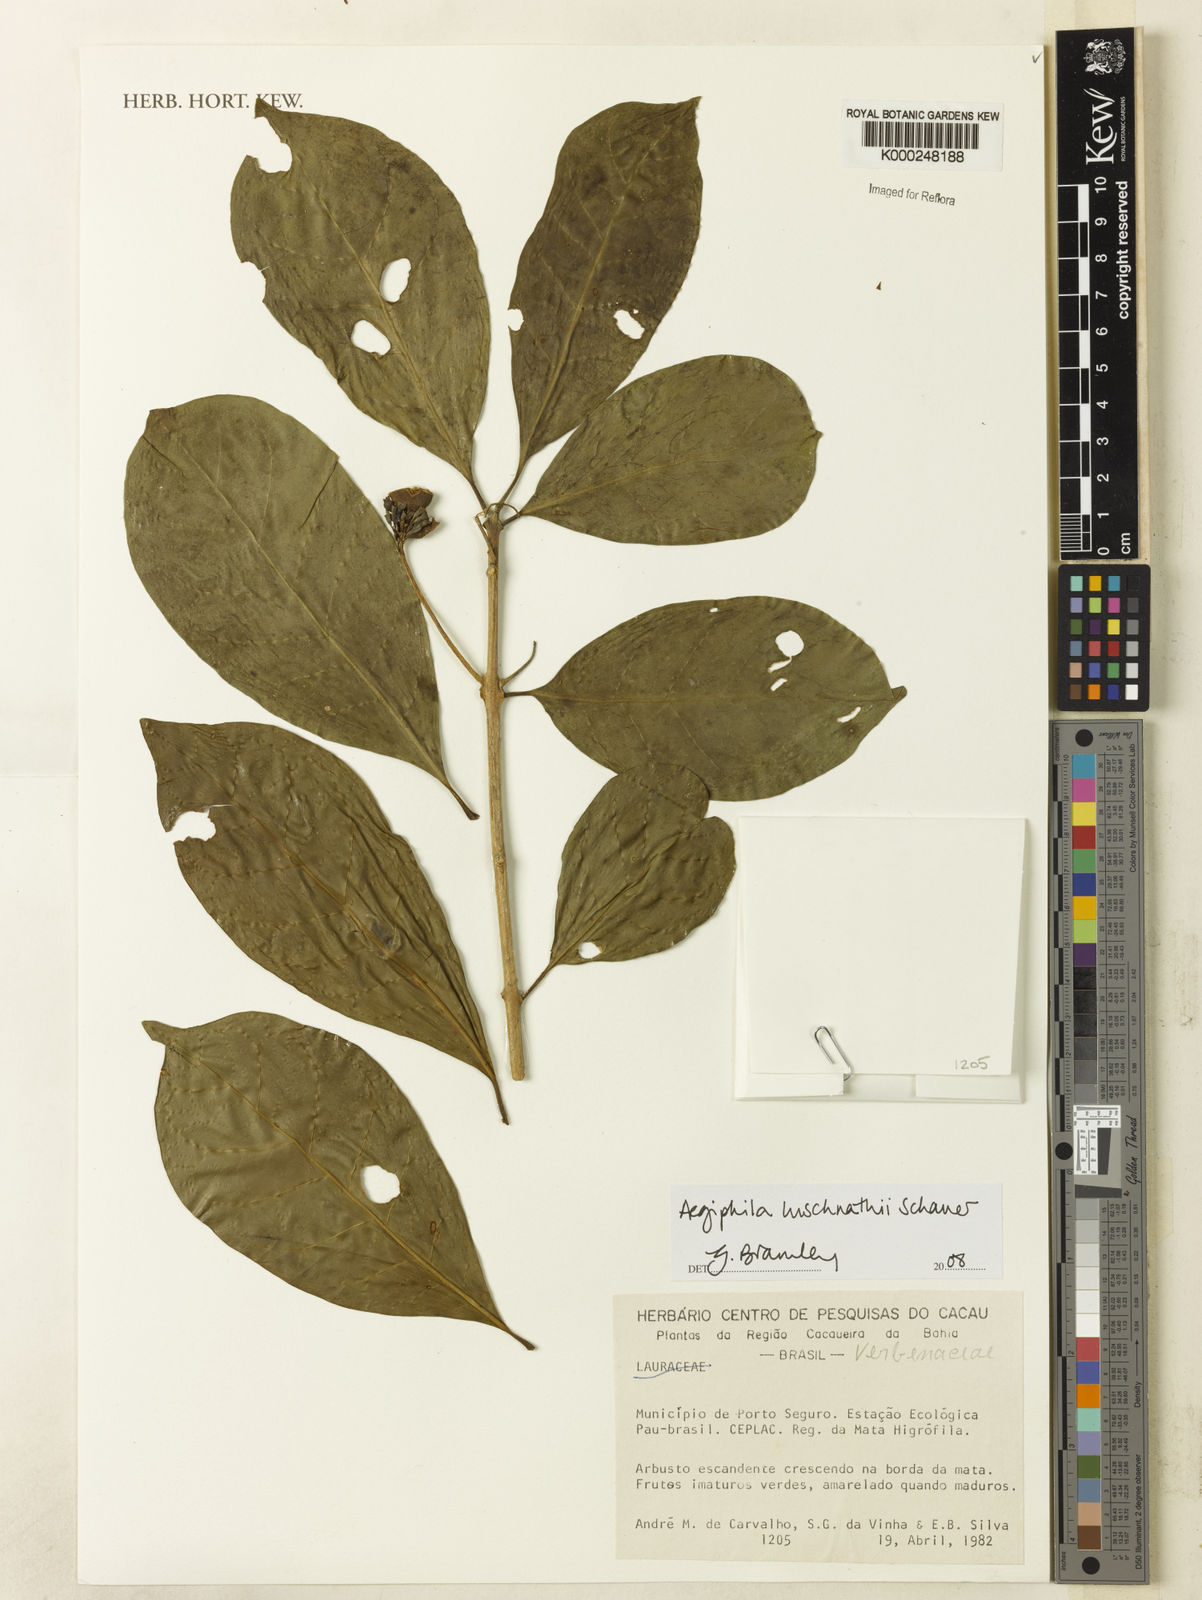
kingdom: Plantae
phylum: Tracheophyta
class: Magnoliopsida
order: Lamiales
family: Lamiaceae
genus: Aegiphila
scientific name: Aegiphila luschnathii
